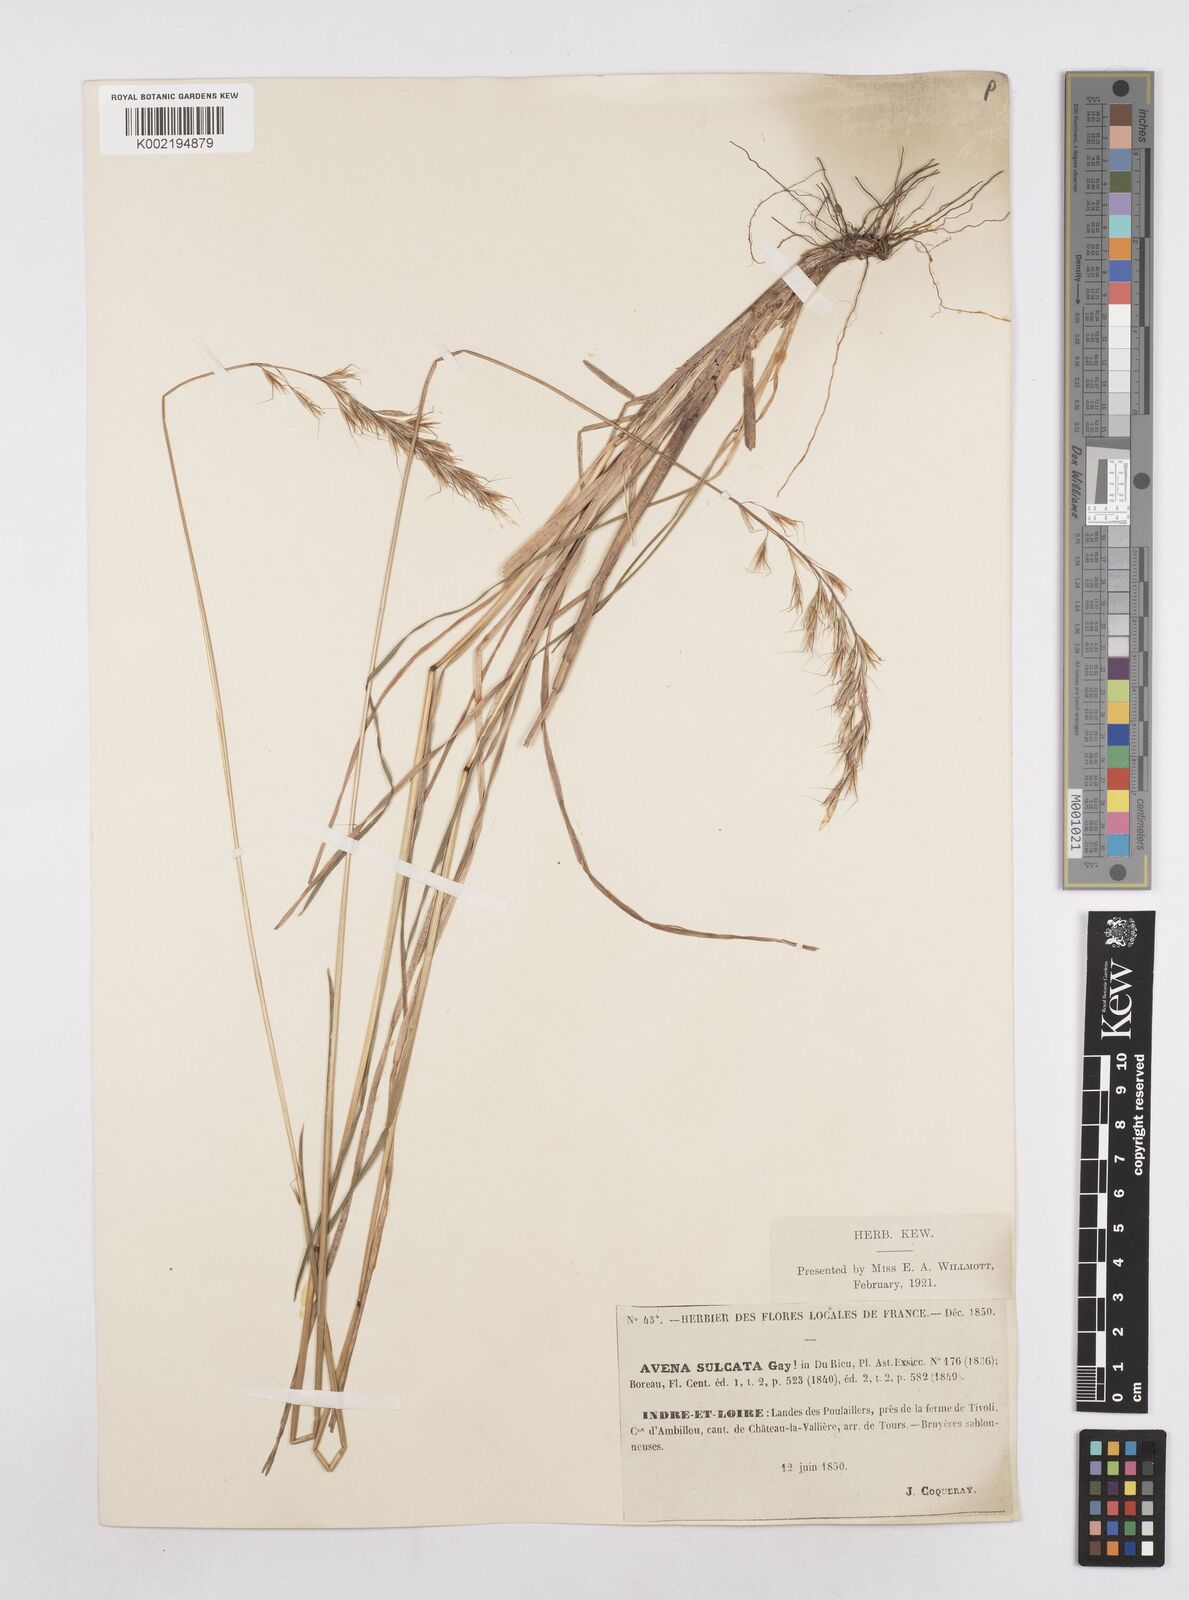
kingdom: Plantae
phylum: Tracheophyta
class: Liliopsida
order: Poales
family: Poaceae
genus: Helictotrichon
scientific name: Helictotrichon
